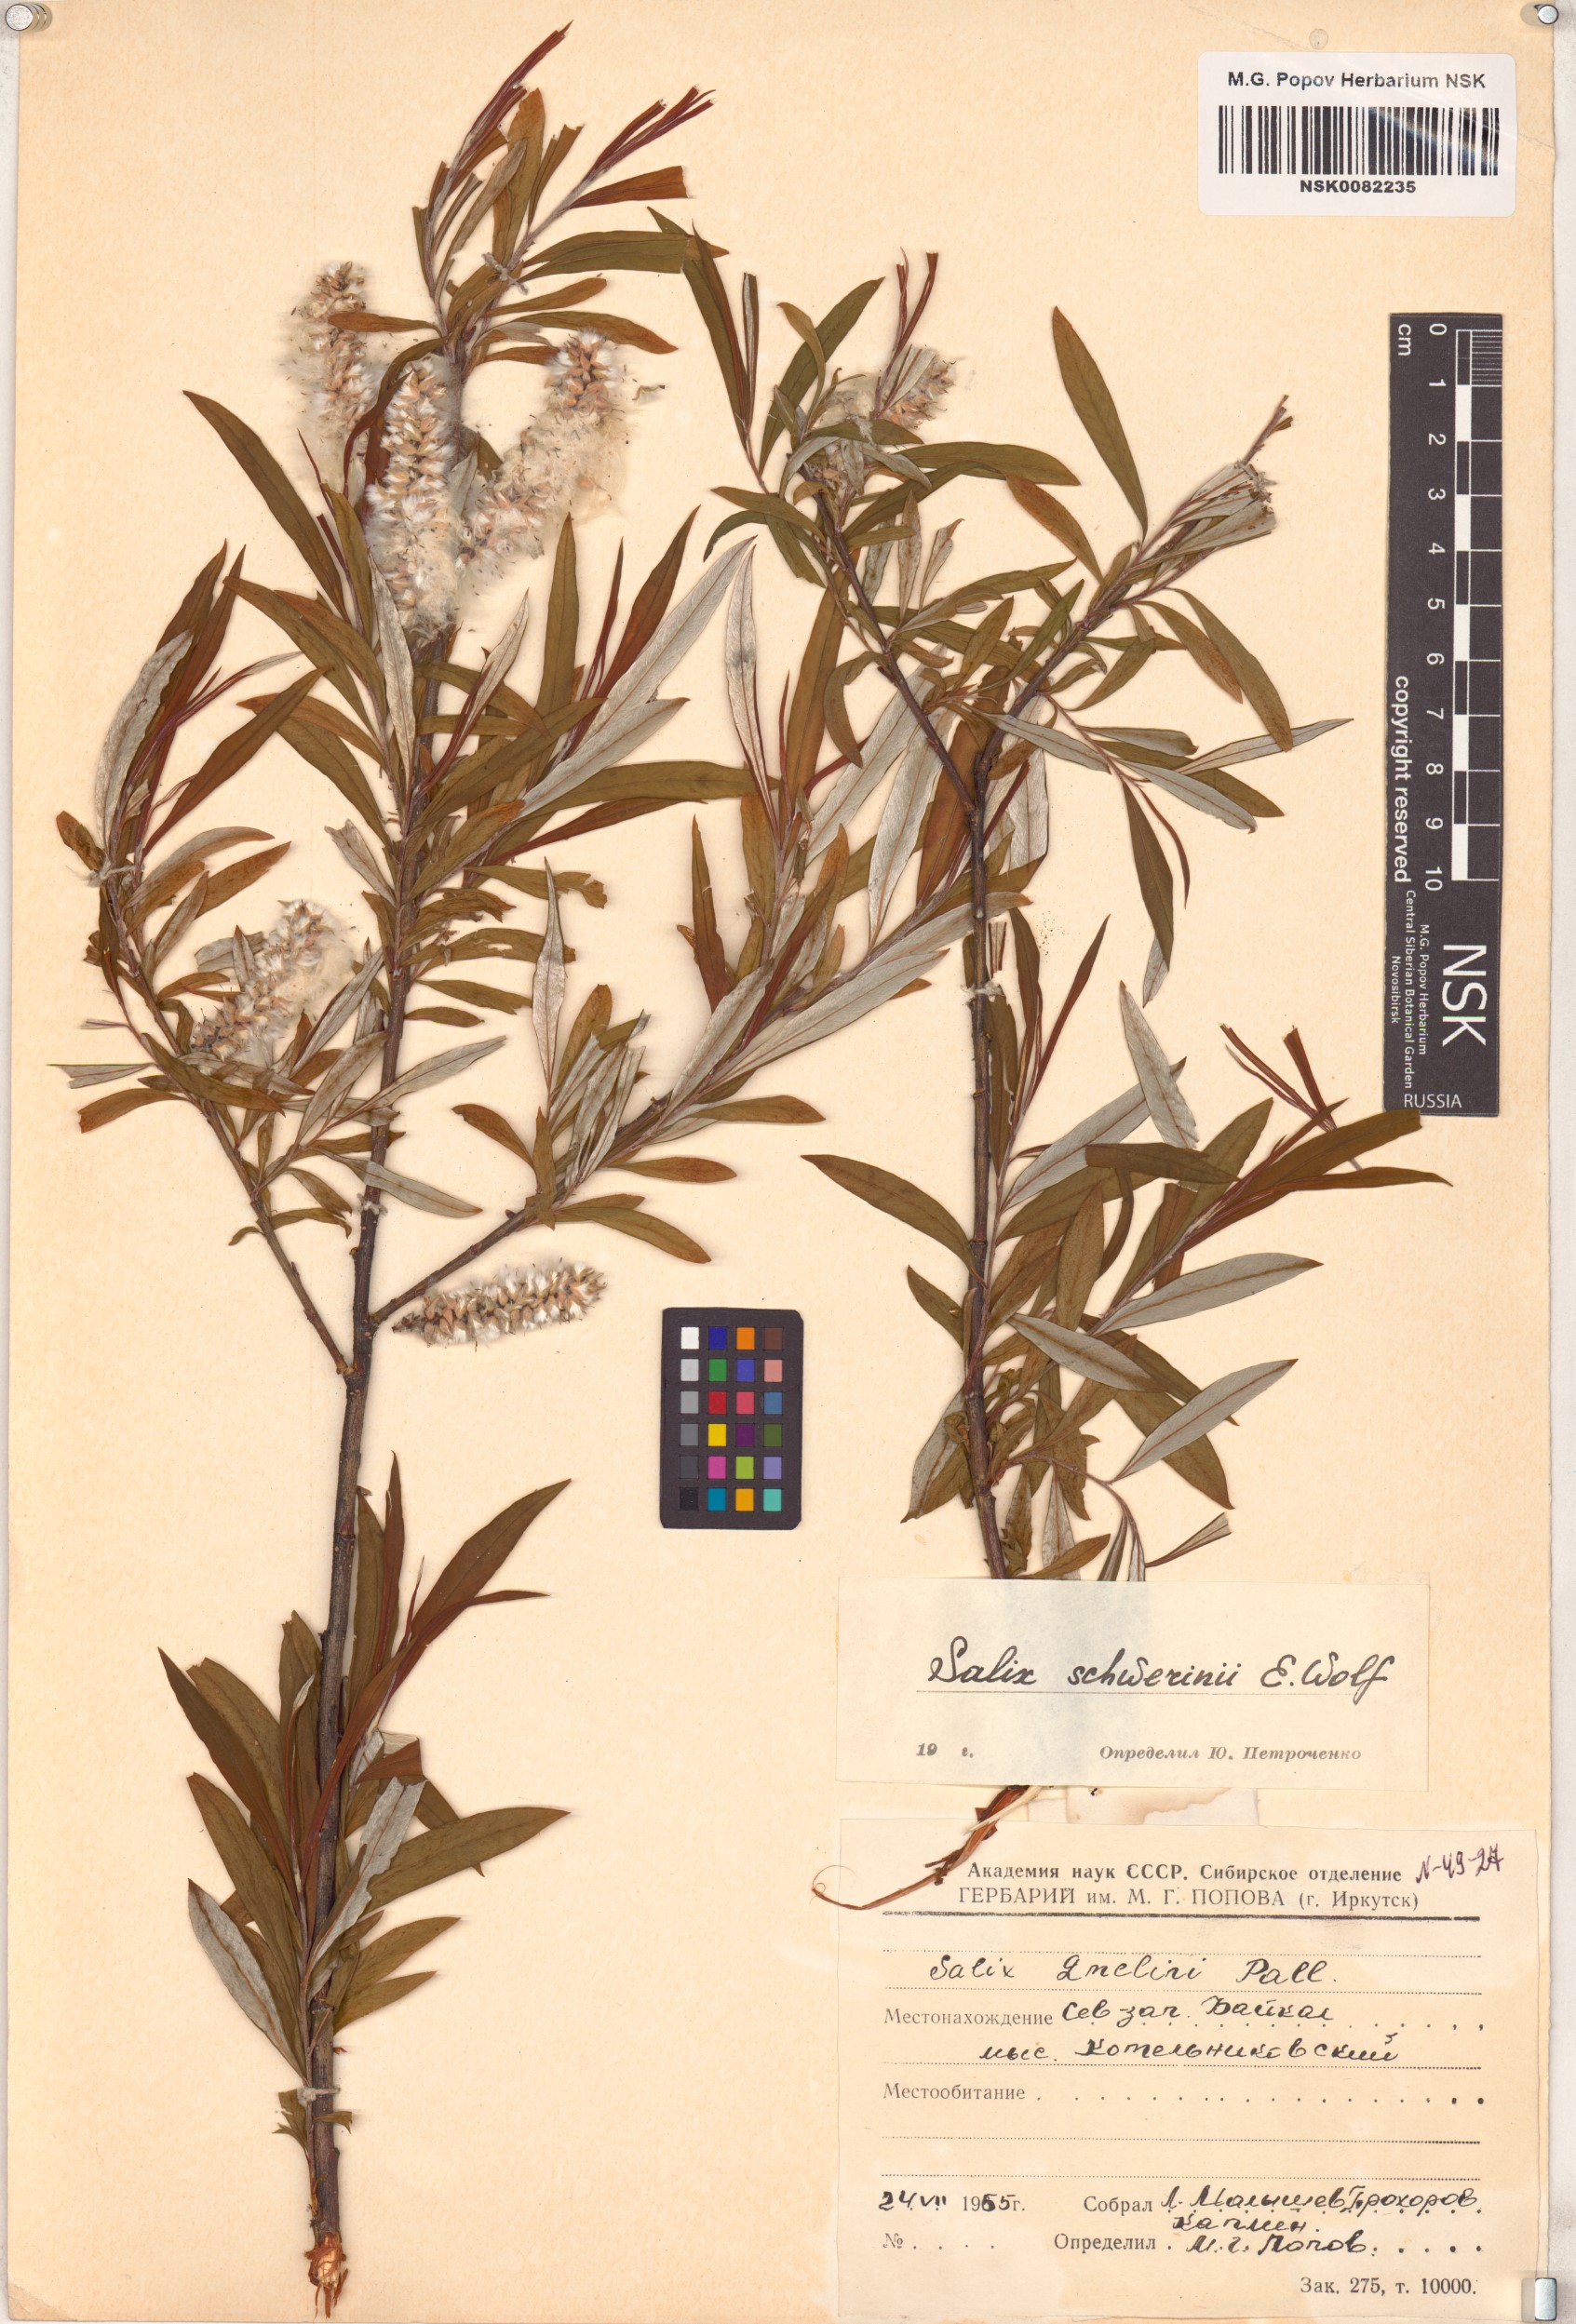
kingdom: Plantae
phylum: Tracheophyta
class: Magnoliopsida
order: Malpighiales
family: Salicaceae
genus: Salix
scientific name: Salix schwerinii
